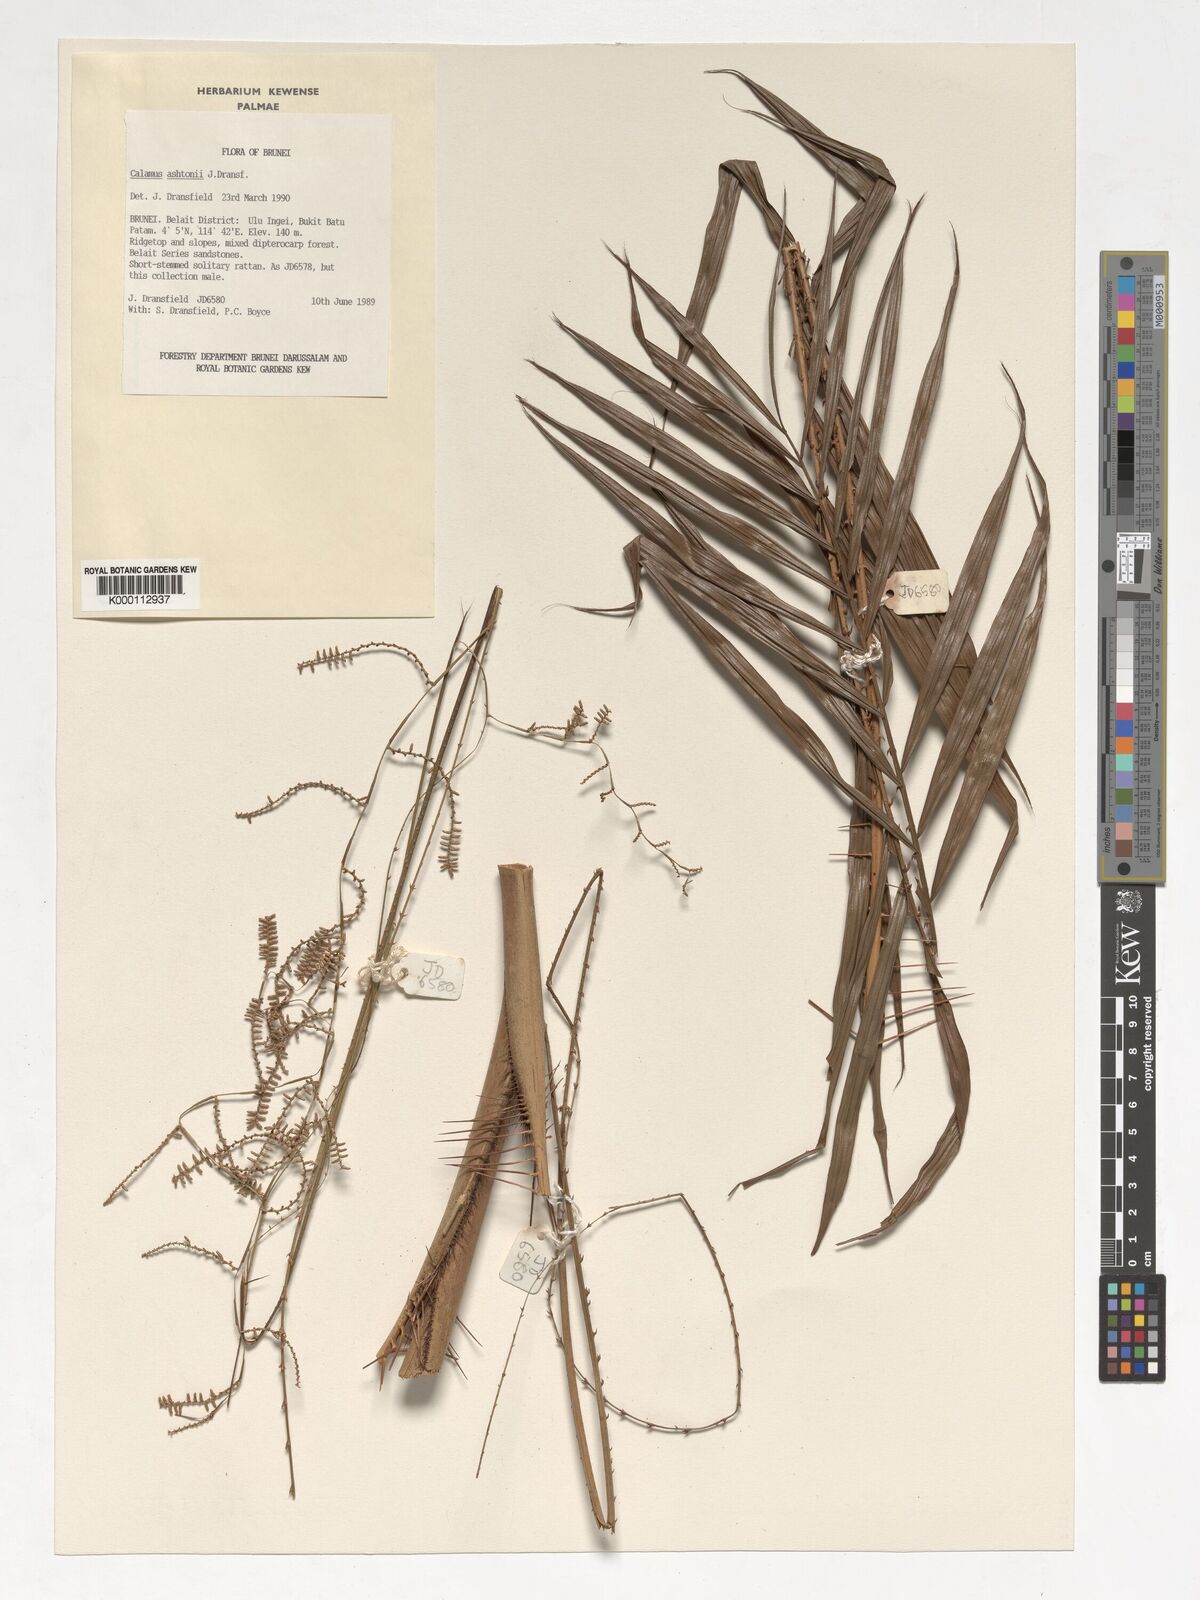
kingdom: Plantae
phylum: Tracheophyta
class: Liliopsida
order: Arecales
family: Arecaceae
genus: Calamus
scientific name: Calamus ashtonii
